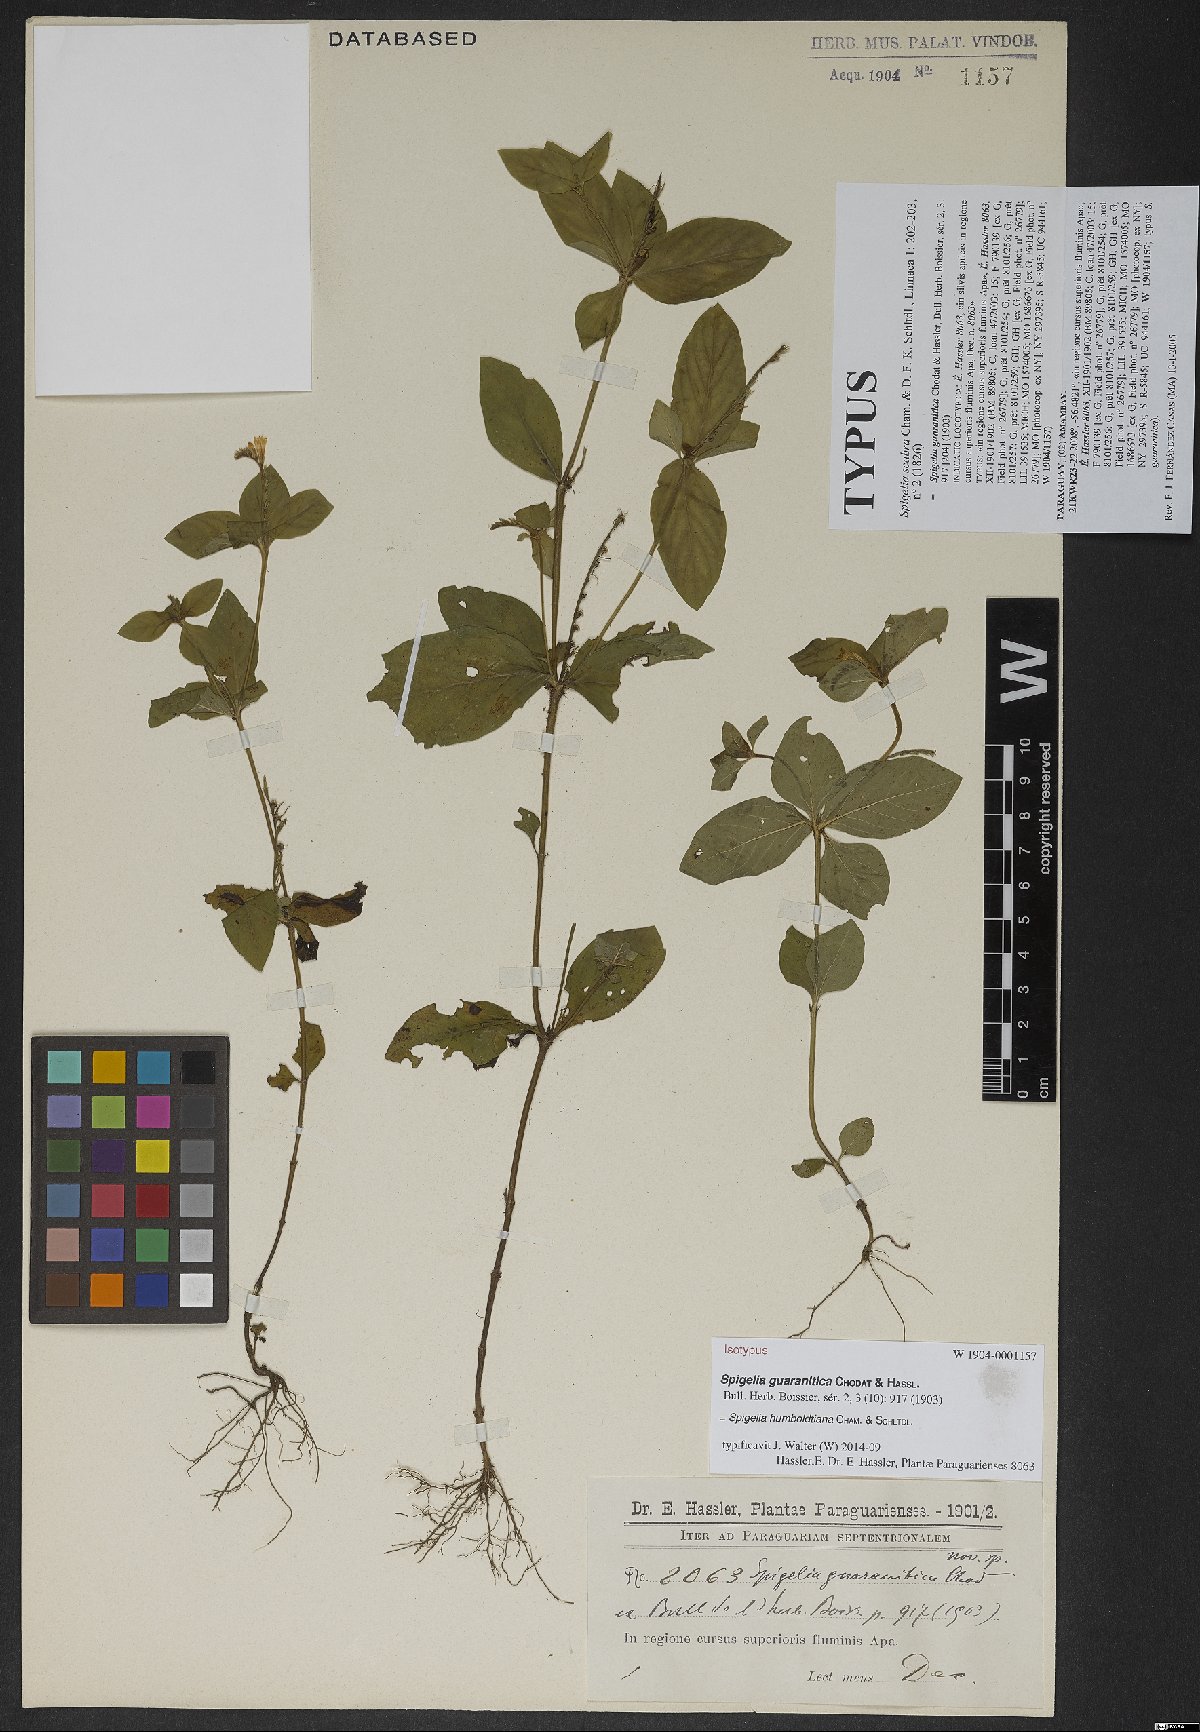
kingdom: Plantae
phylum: Tracheophyta
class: Magnoliopsida
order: Gentianales
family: Loganiaceae
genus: Spigelia
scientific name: Spigelia humboldtiana
